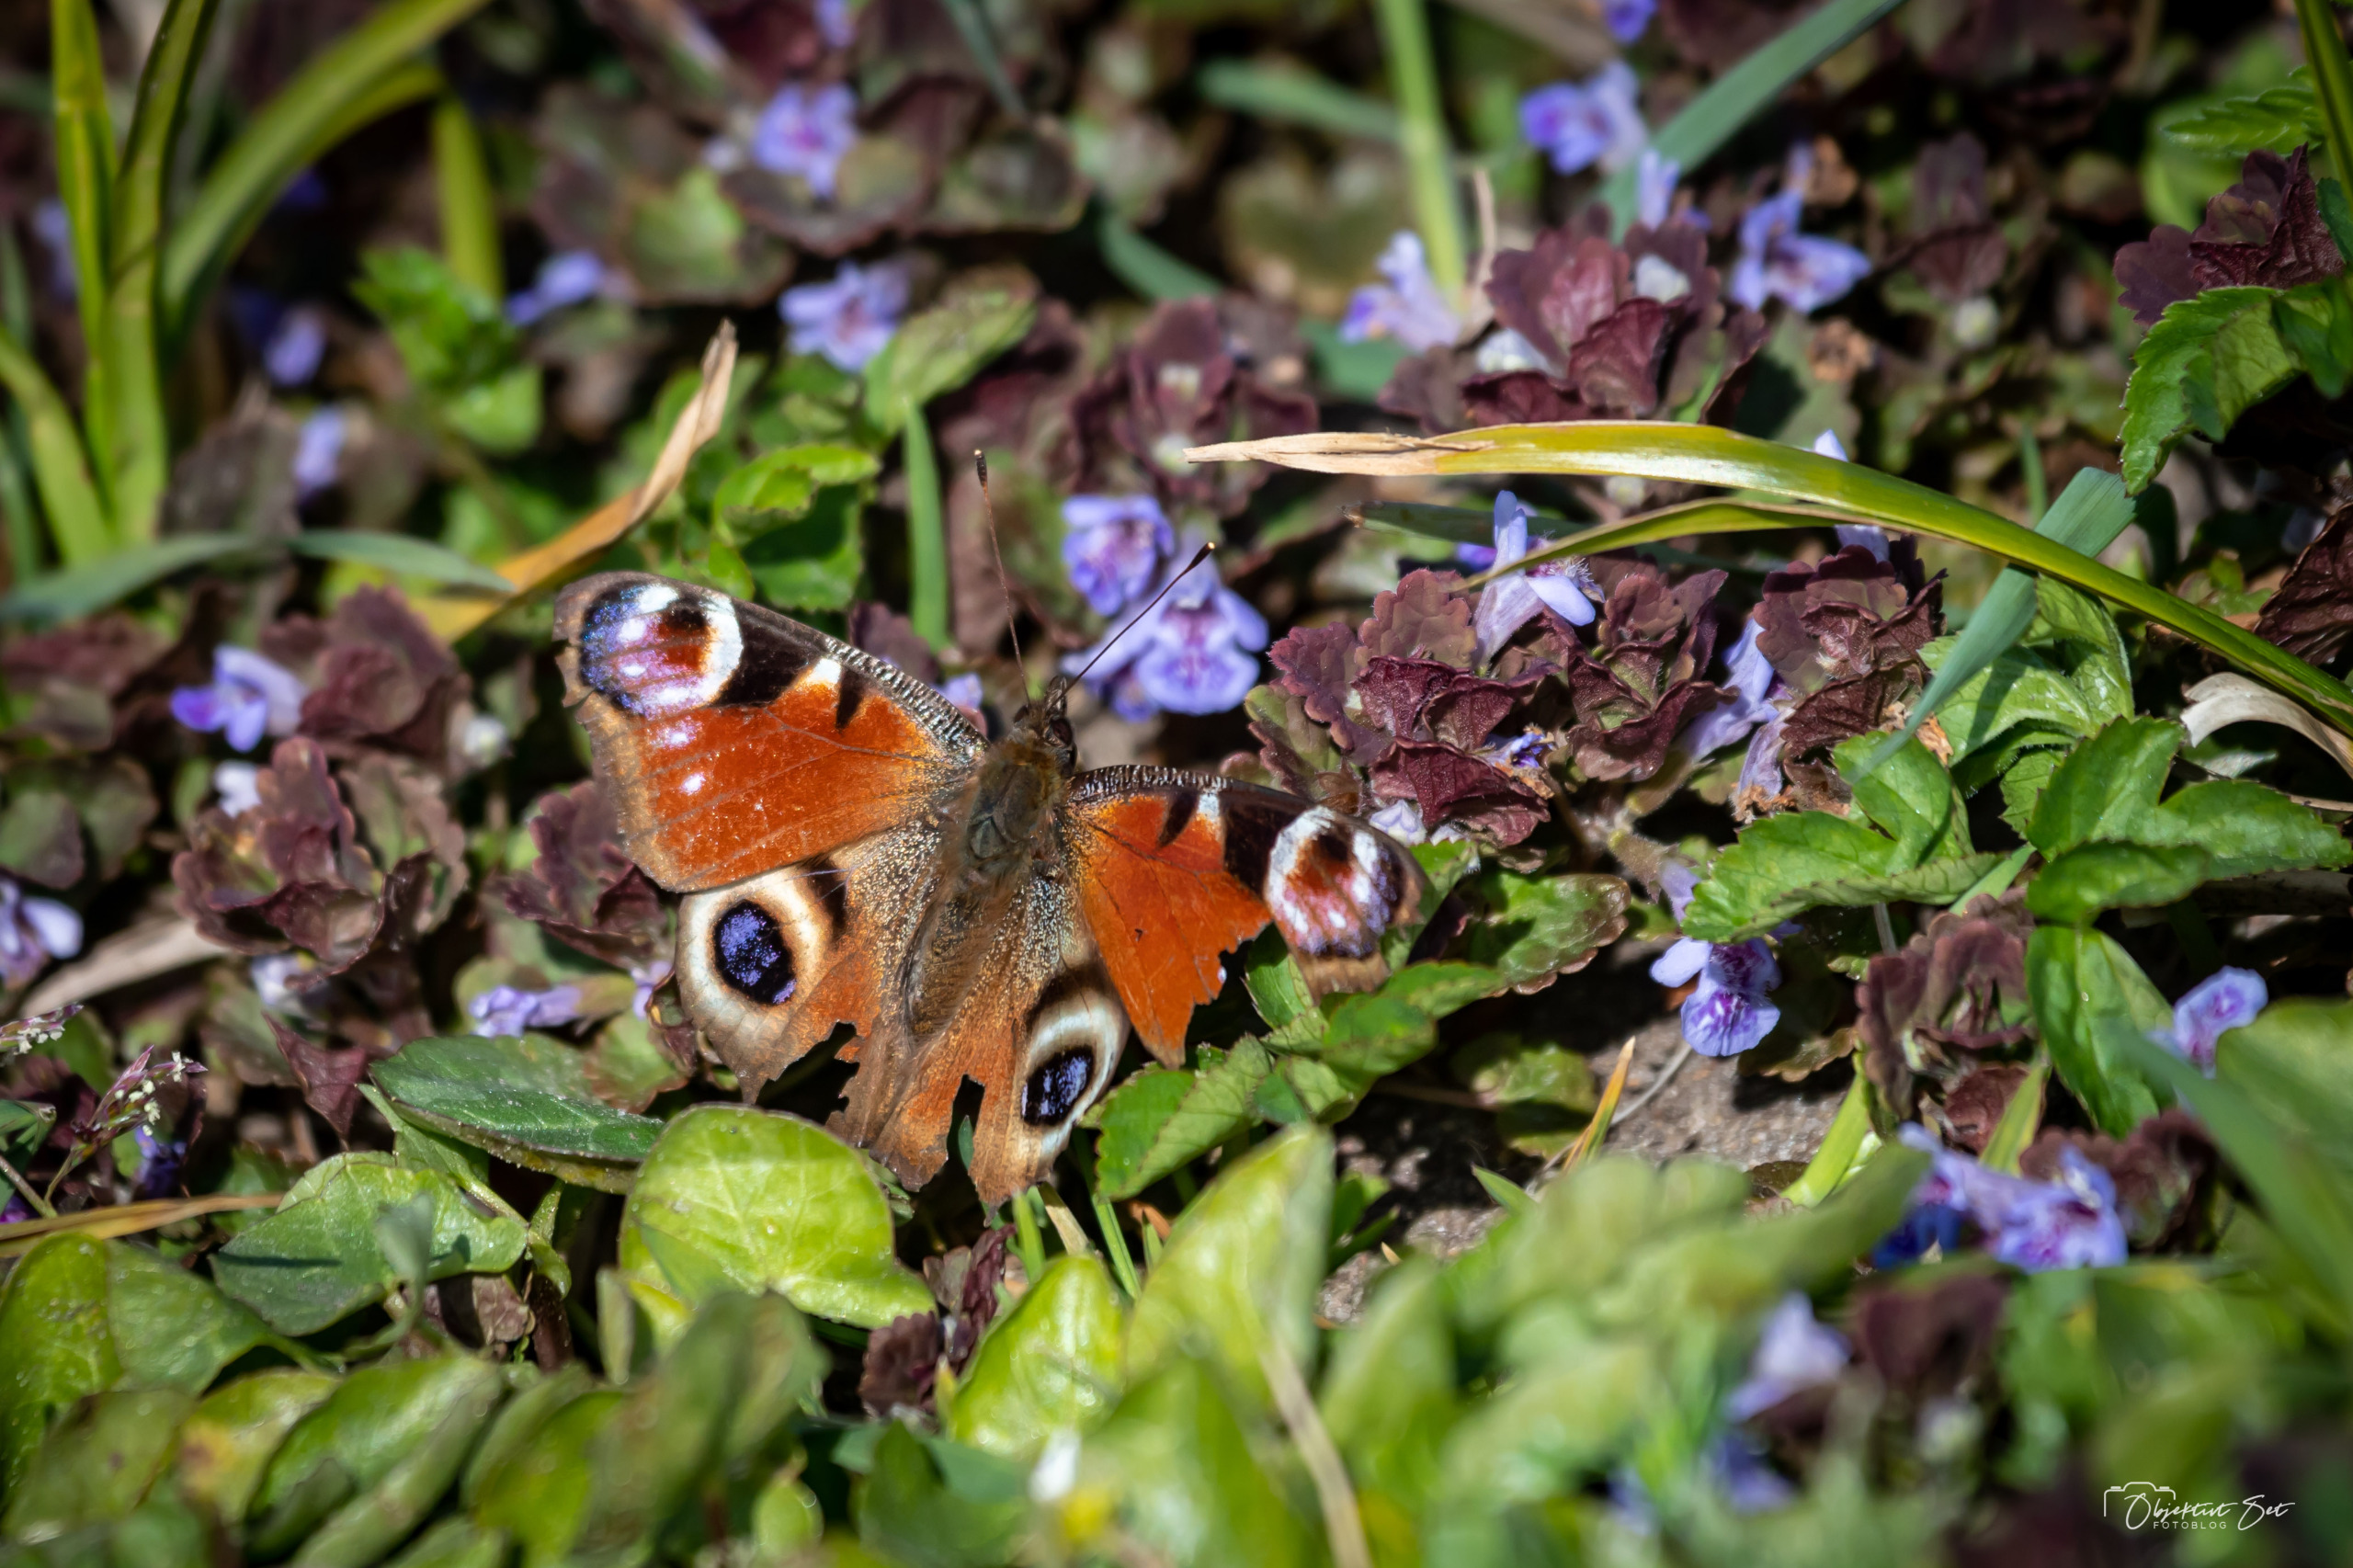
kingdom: Animalia
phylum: Arthropoda
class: Insecta
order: Lepidoptera
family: Nymphalidae
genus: Aglais
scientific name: Aglais io
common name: Dagpåfugleøje
